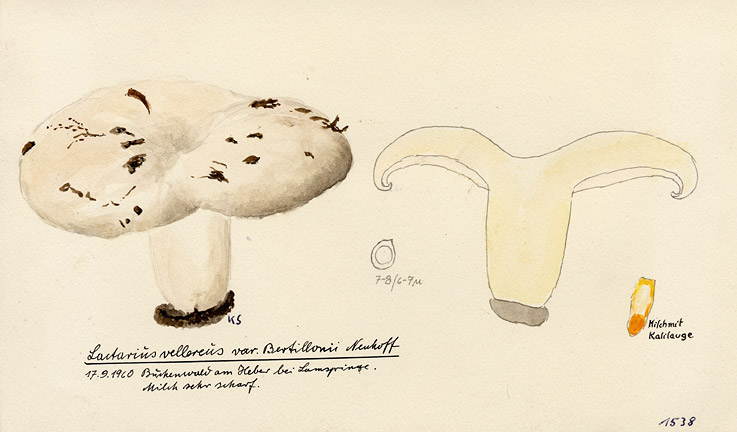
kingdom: Fungi
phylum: Basidiomycota
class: Agaricomycetes
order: Russulales
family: Russulaceae
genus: Lactifluus
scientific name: Lactifluus bertillonii
